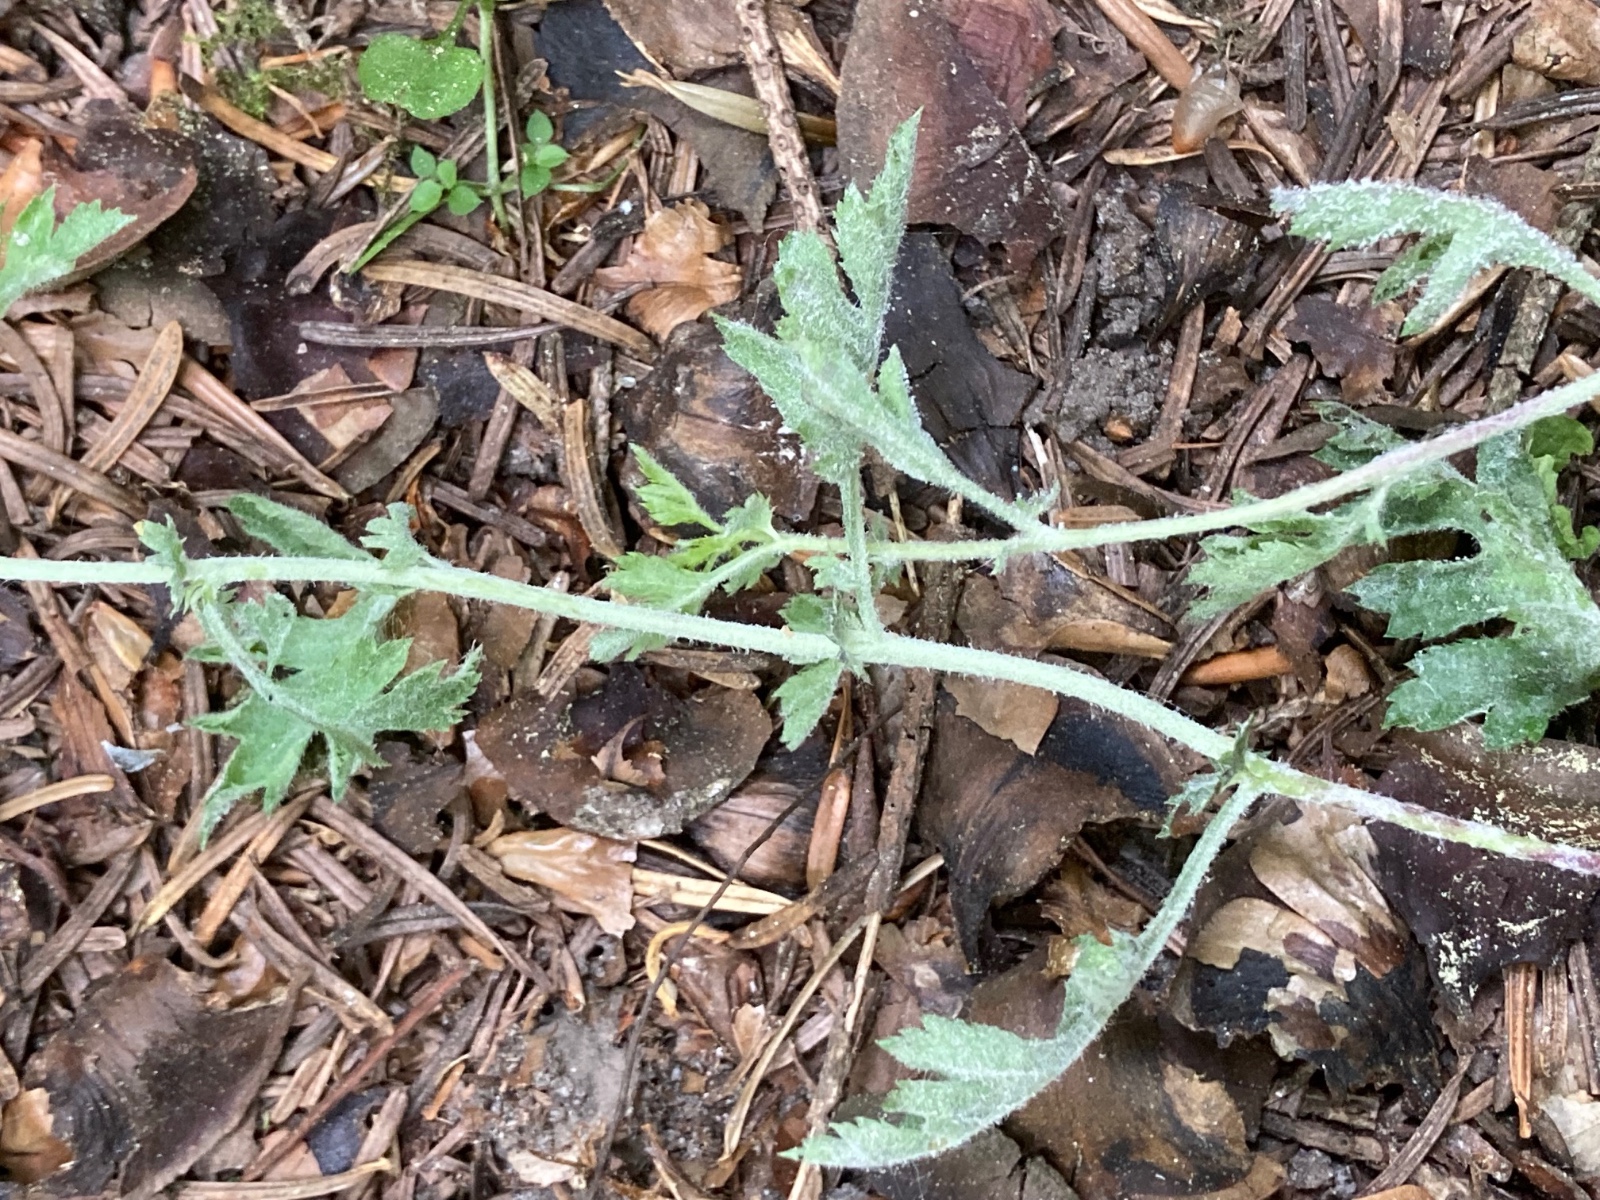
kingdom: Fungi
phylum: Ascomycota
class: Leotiomycetes
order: Helotiales
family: Erysiphaceae
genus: Podosphaera
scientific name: Podosphaera clandestina
